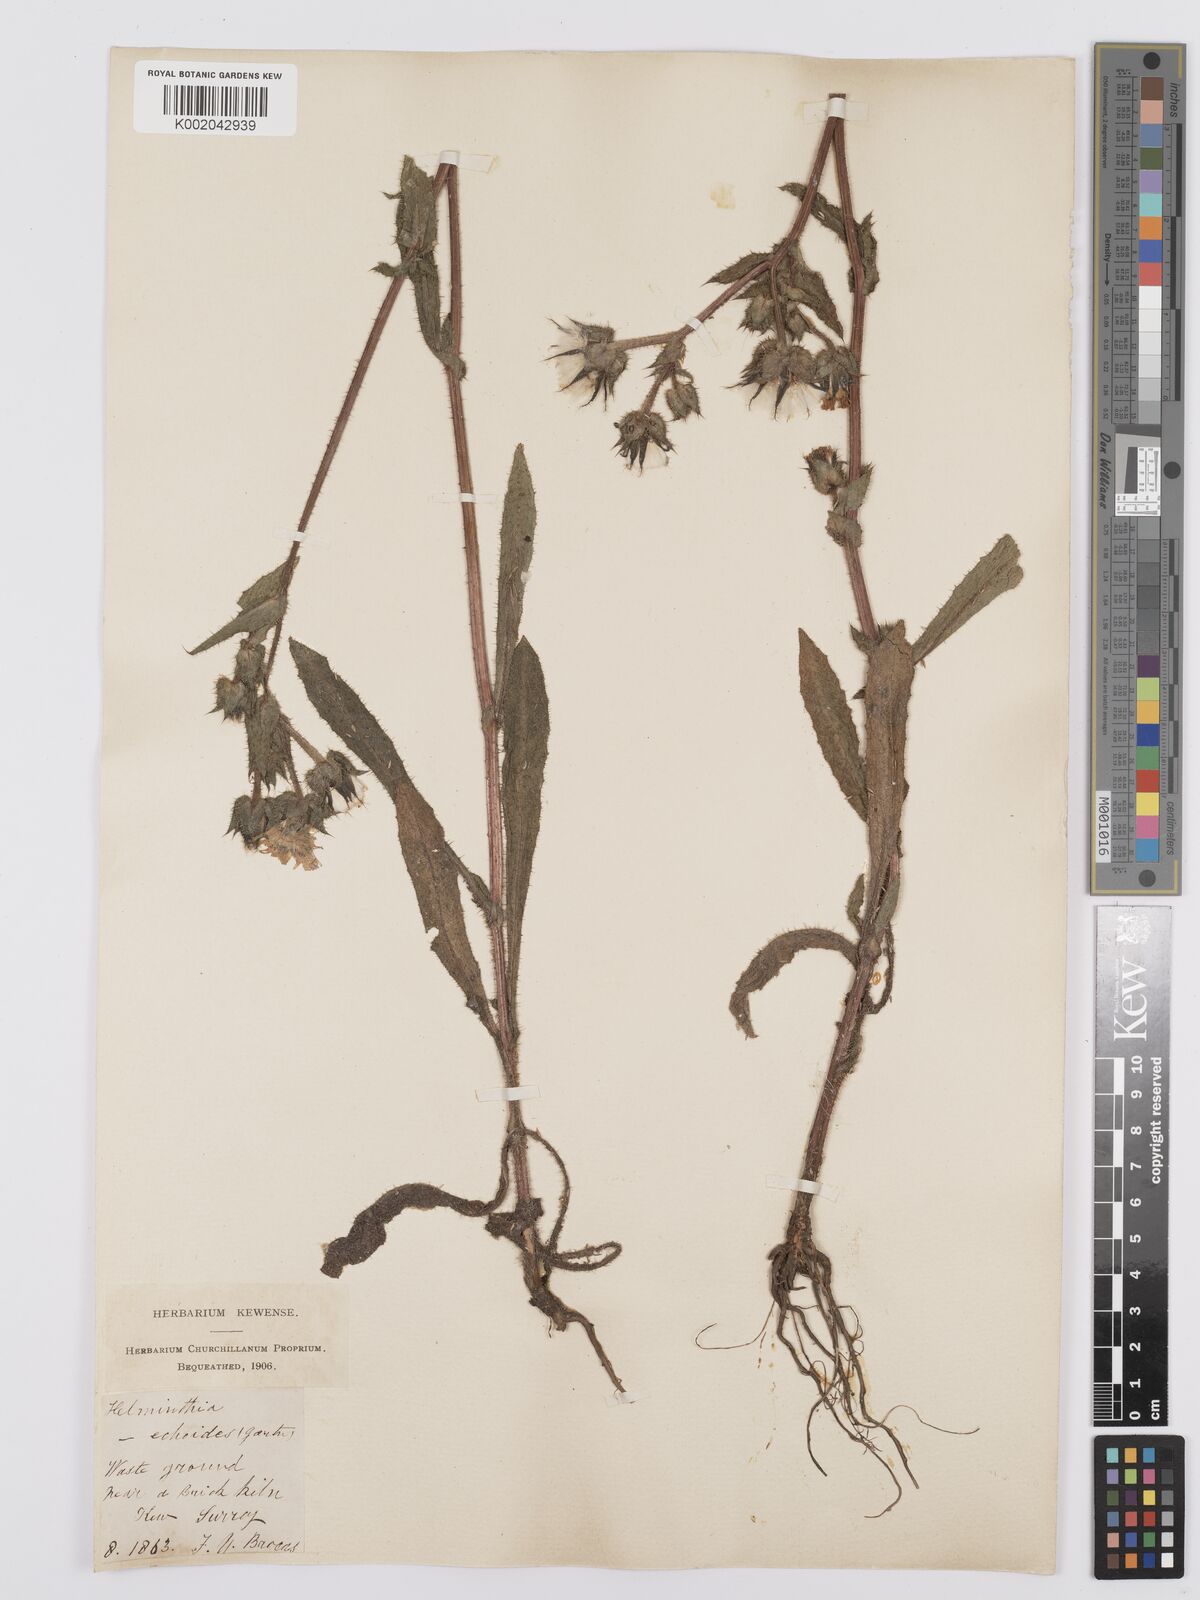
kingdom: Plantae
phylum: Tracheophyta
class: Magnoliopsida
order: Asterales
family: Asteraceae
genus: Helminthotheca
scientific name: Helminthotheca echioides
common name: Ox-tongue
